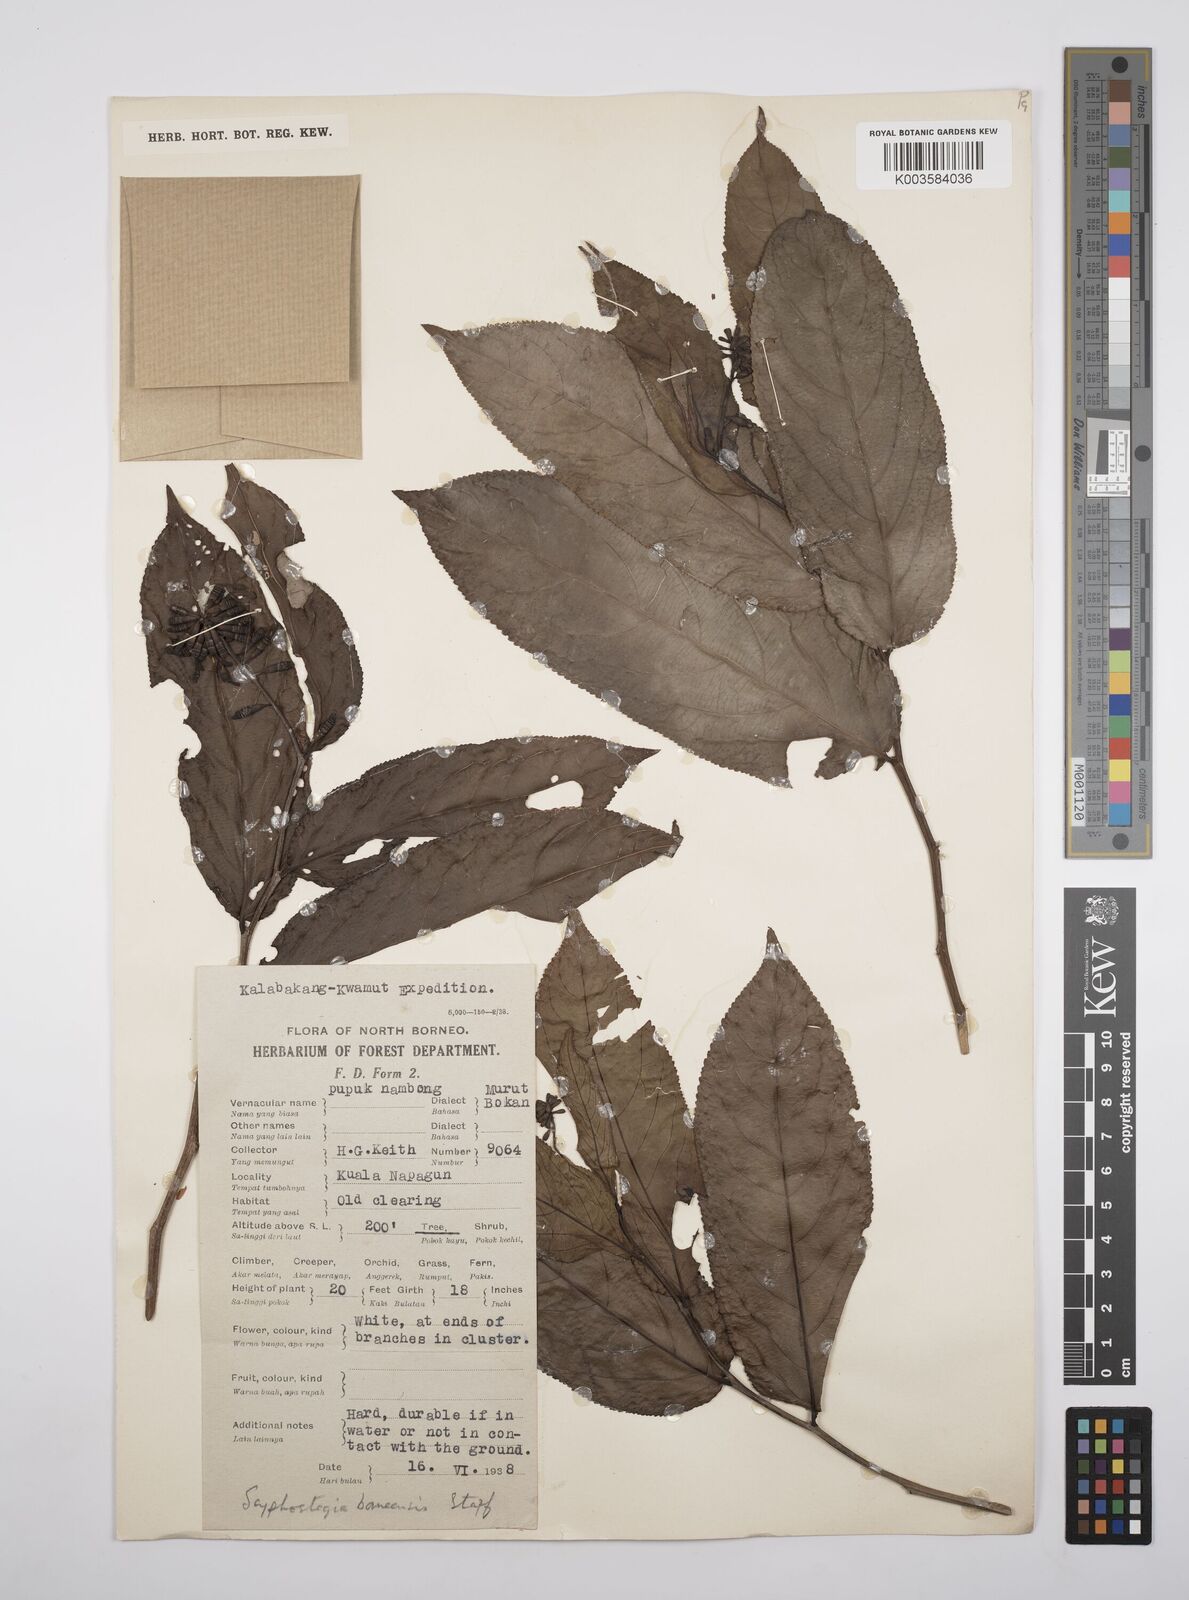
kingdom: Plantae
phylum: Tracheophyta
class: Magnoliopsida
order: Malpighiales
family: Salicaceae
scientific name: Salicaceae
